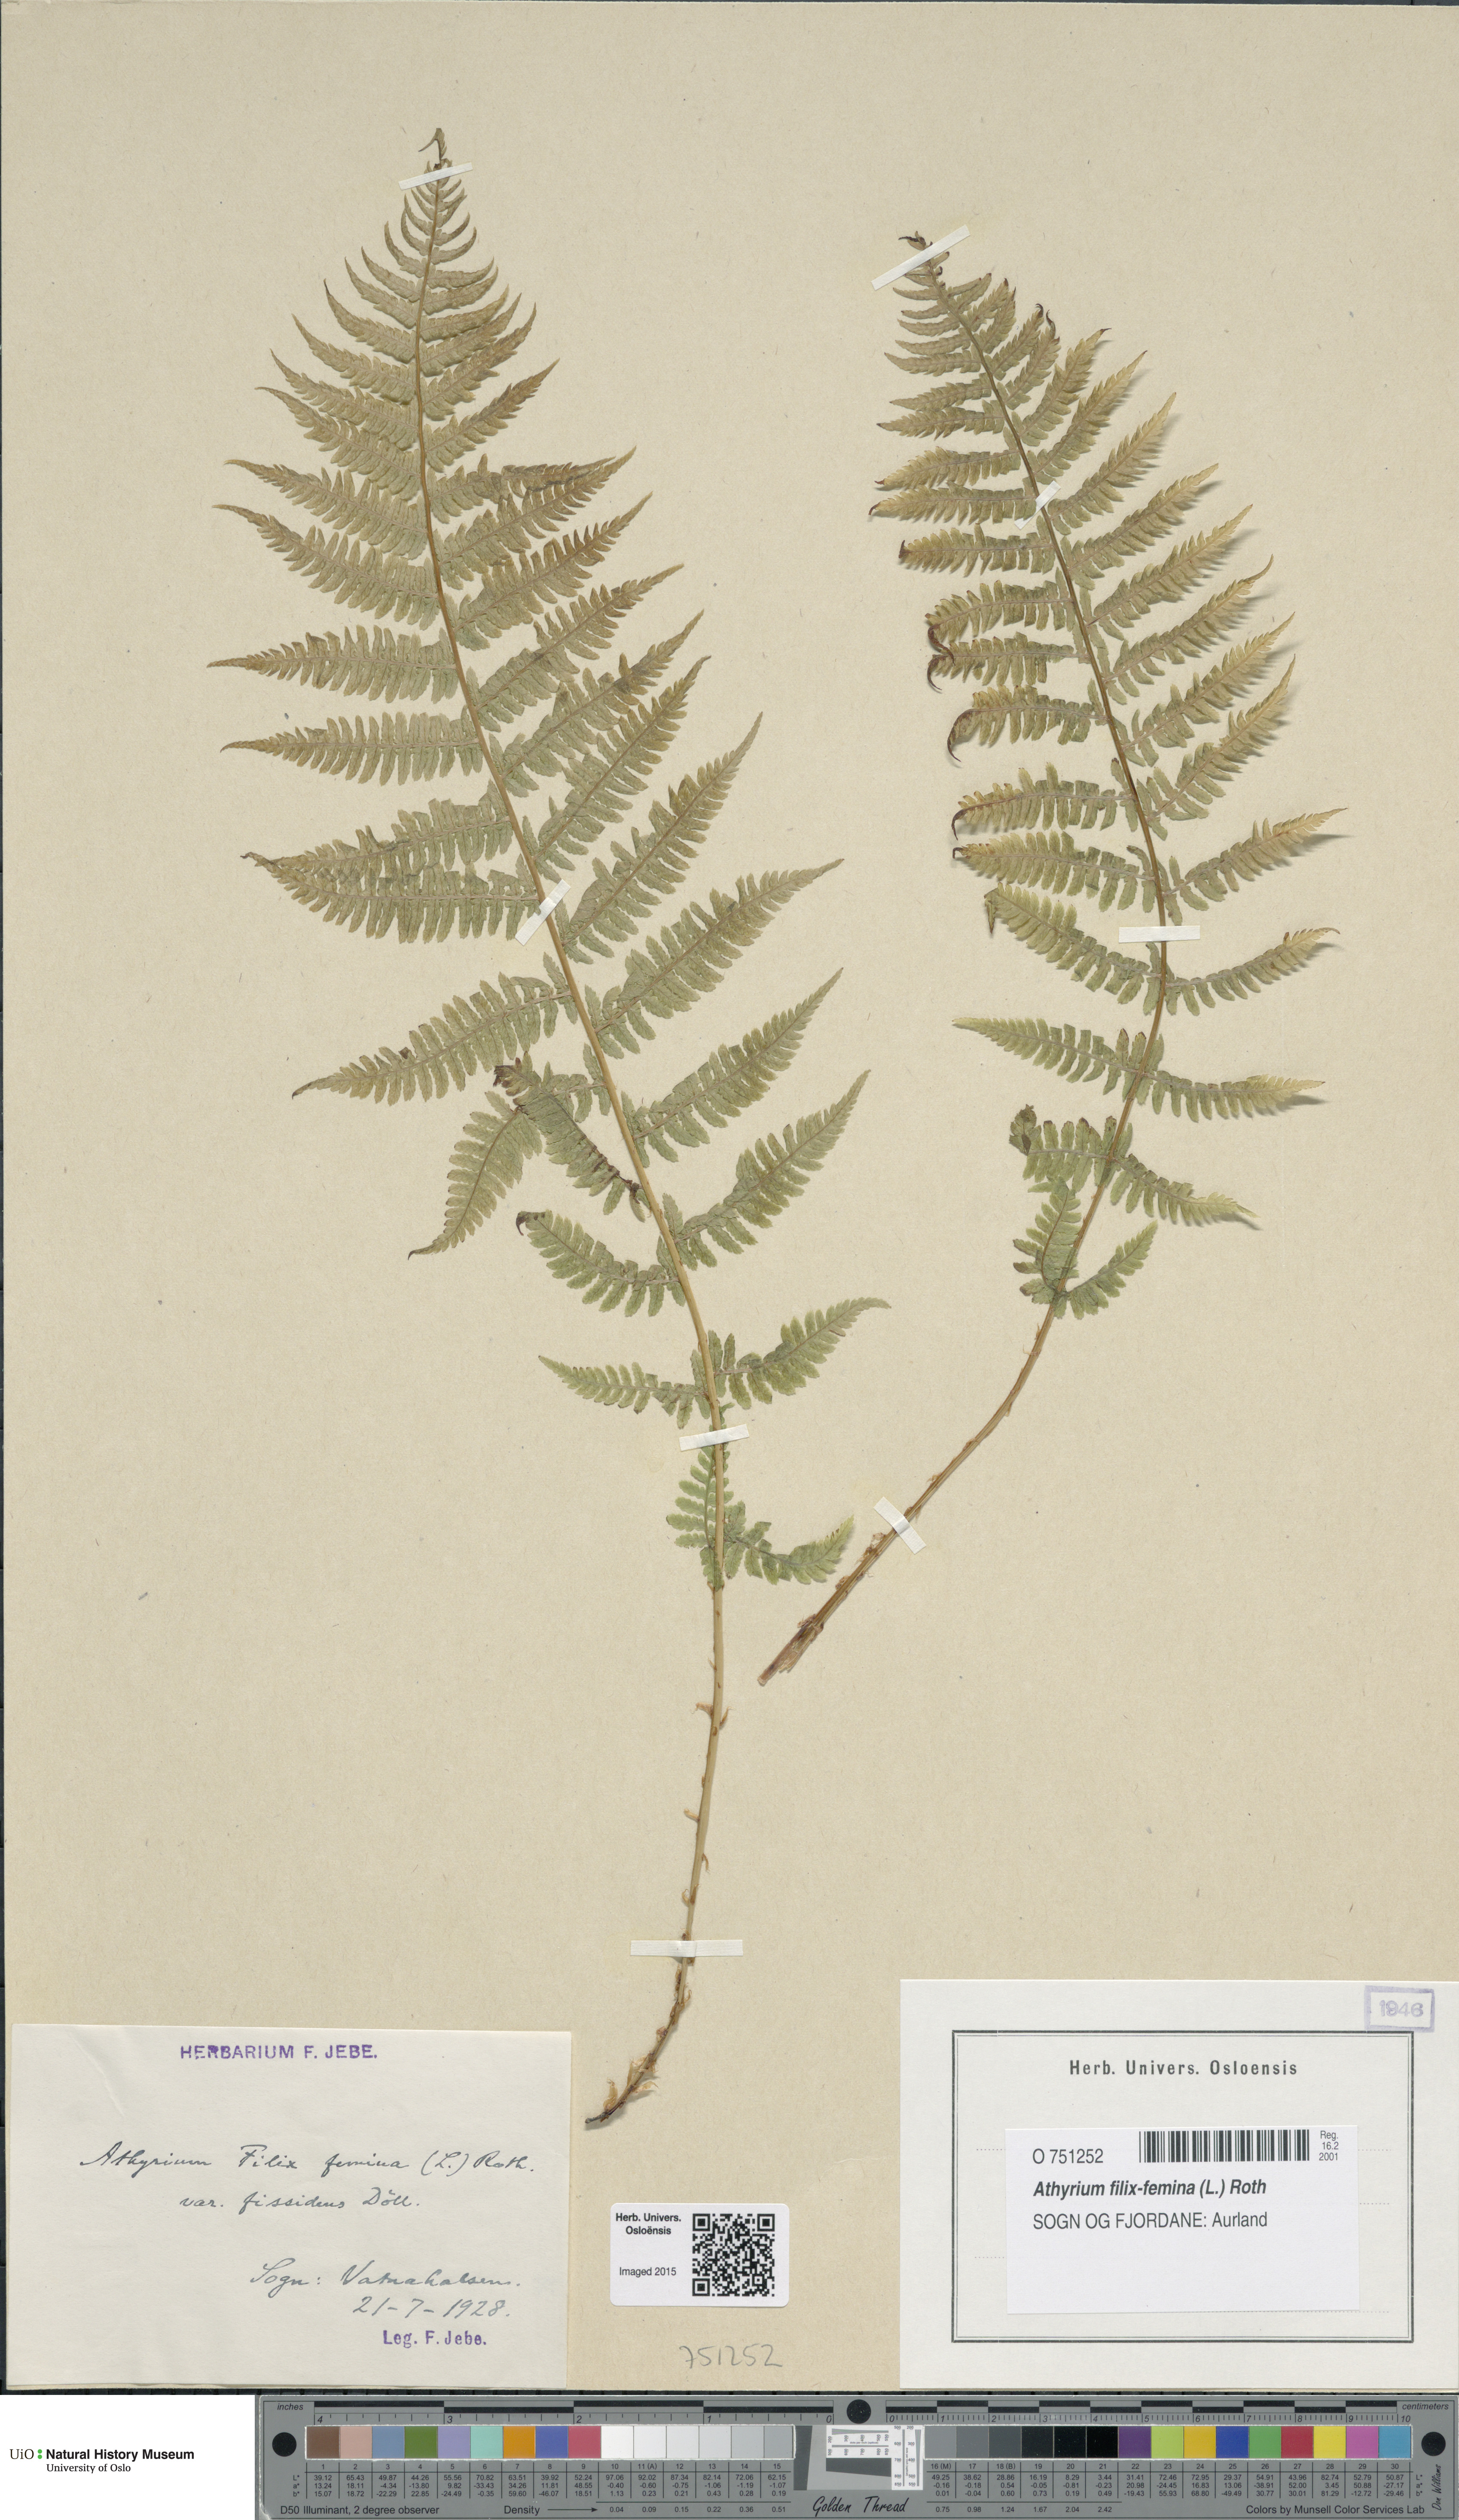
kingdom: Plantae
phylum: Tracheophyta
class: Polypodiopsida
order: Polypodiales
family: Athyriaceae
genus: Athyrium
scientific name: Athyrium filix-femina
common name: Lady fern
